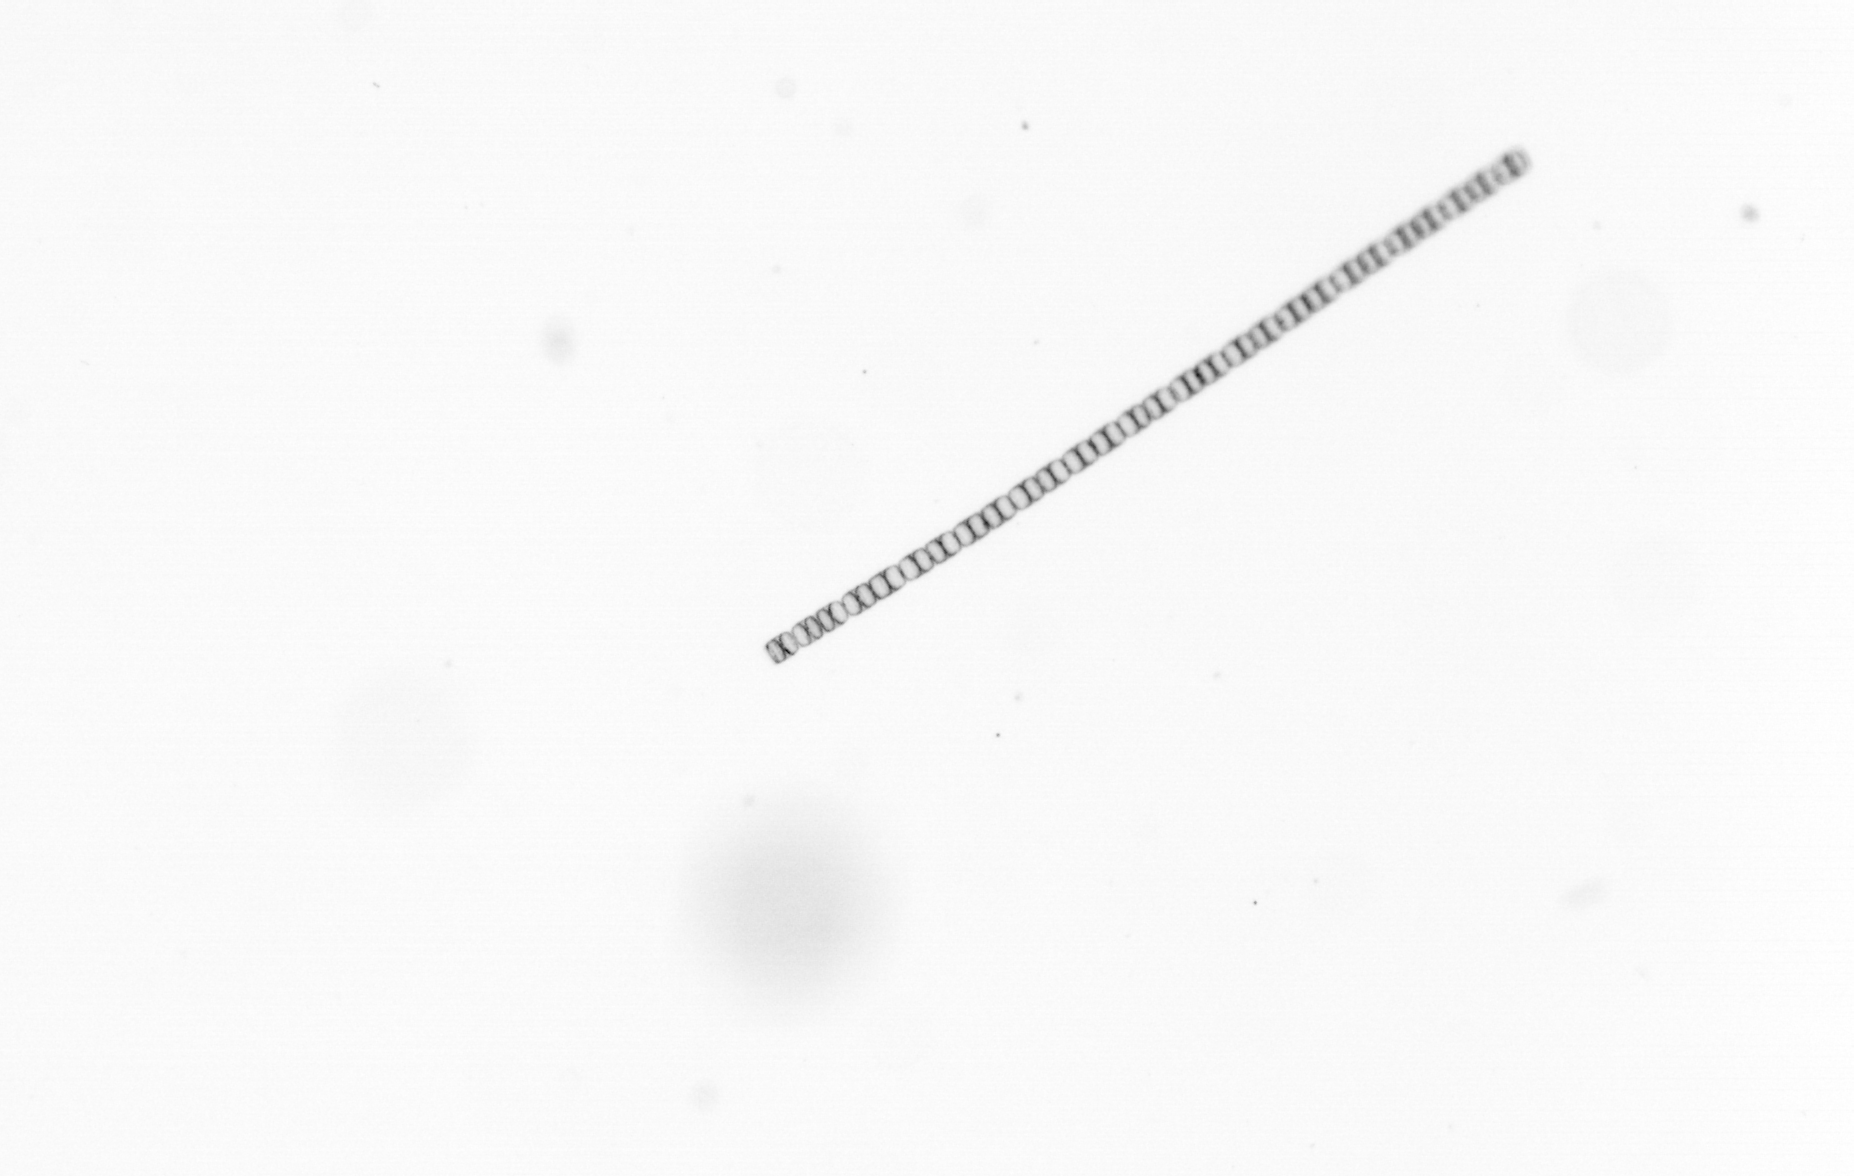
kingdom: Chromista
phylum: Ochrophyta
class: Bacillariophyceae
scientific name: Bacillariophyceae
